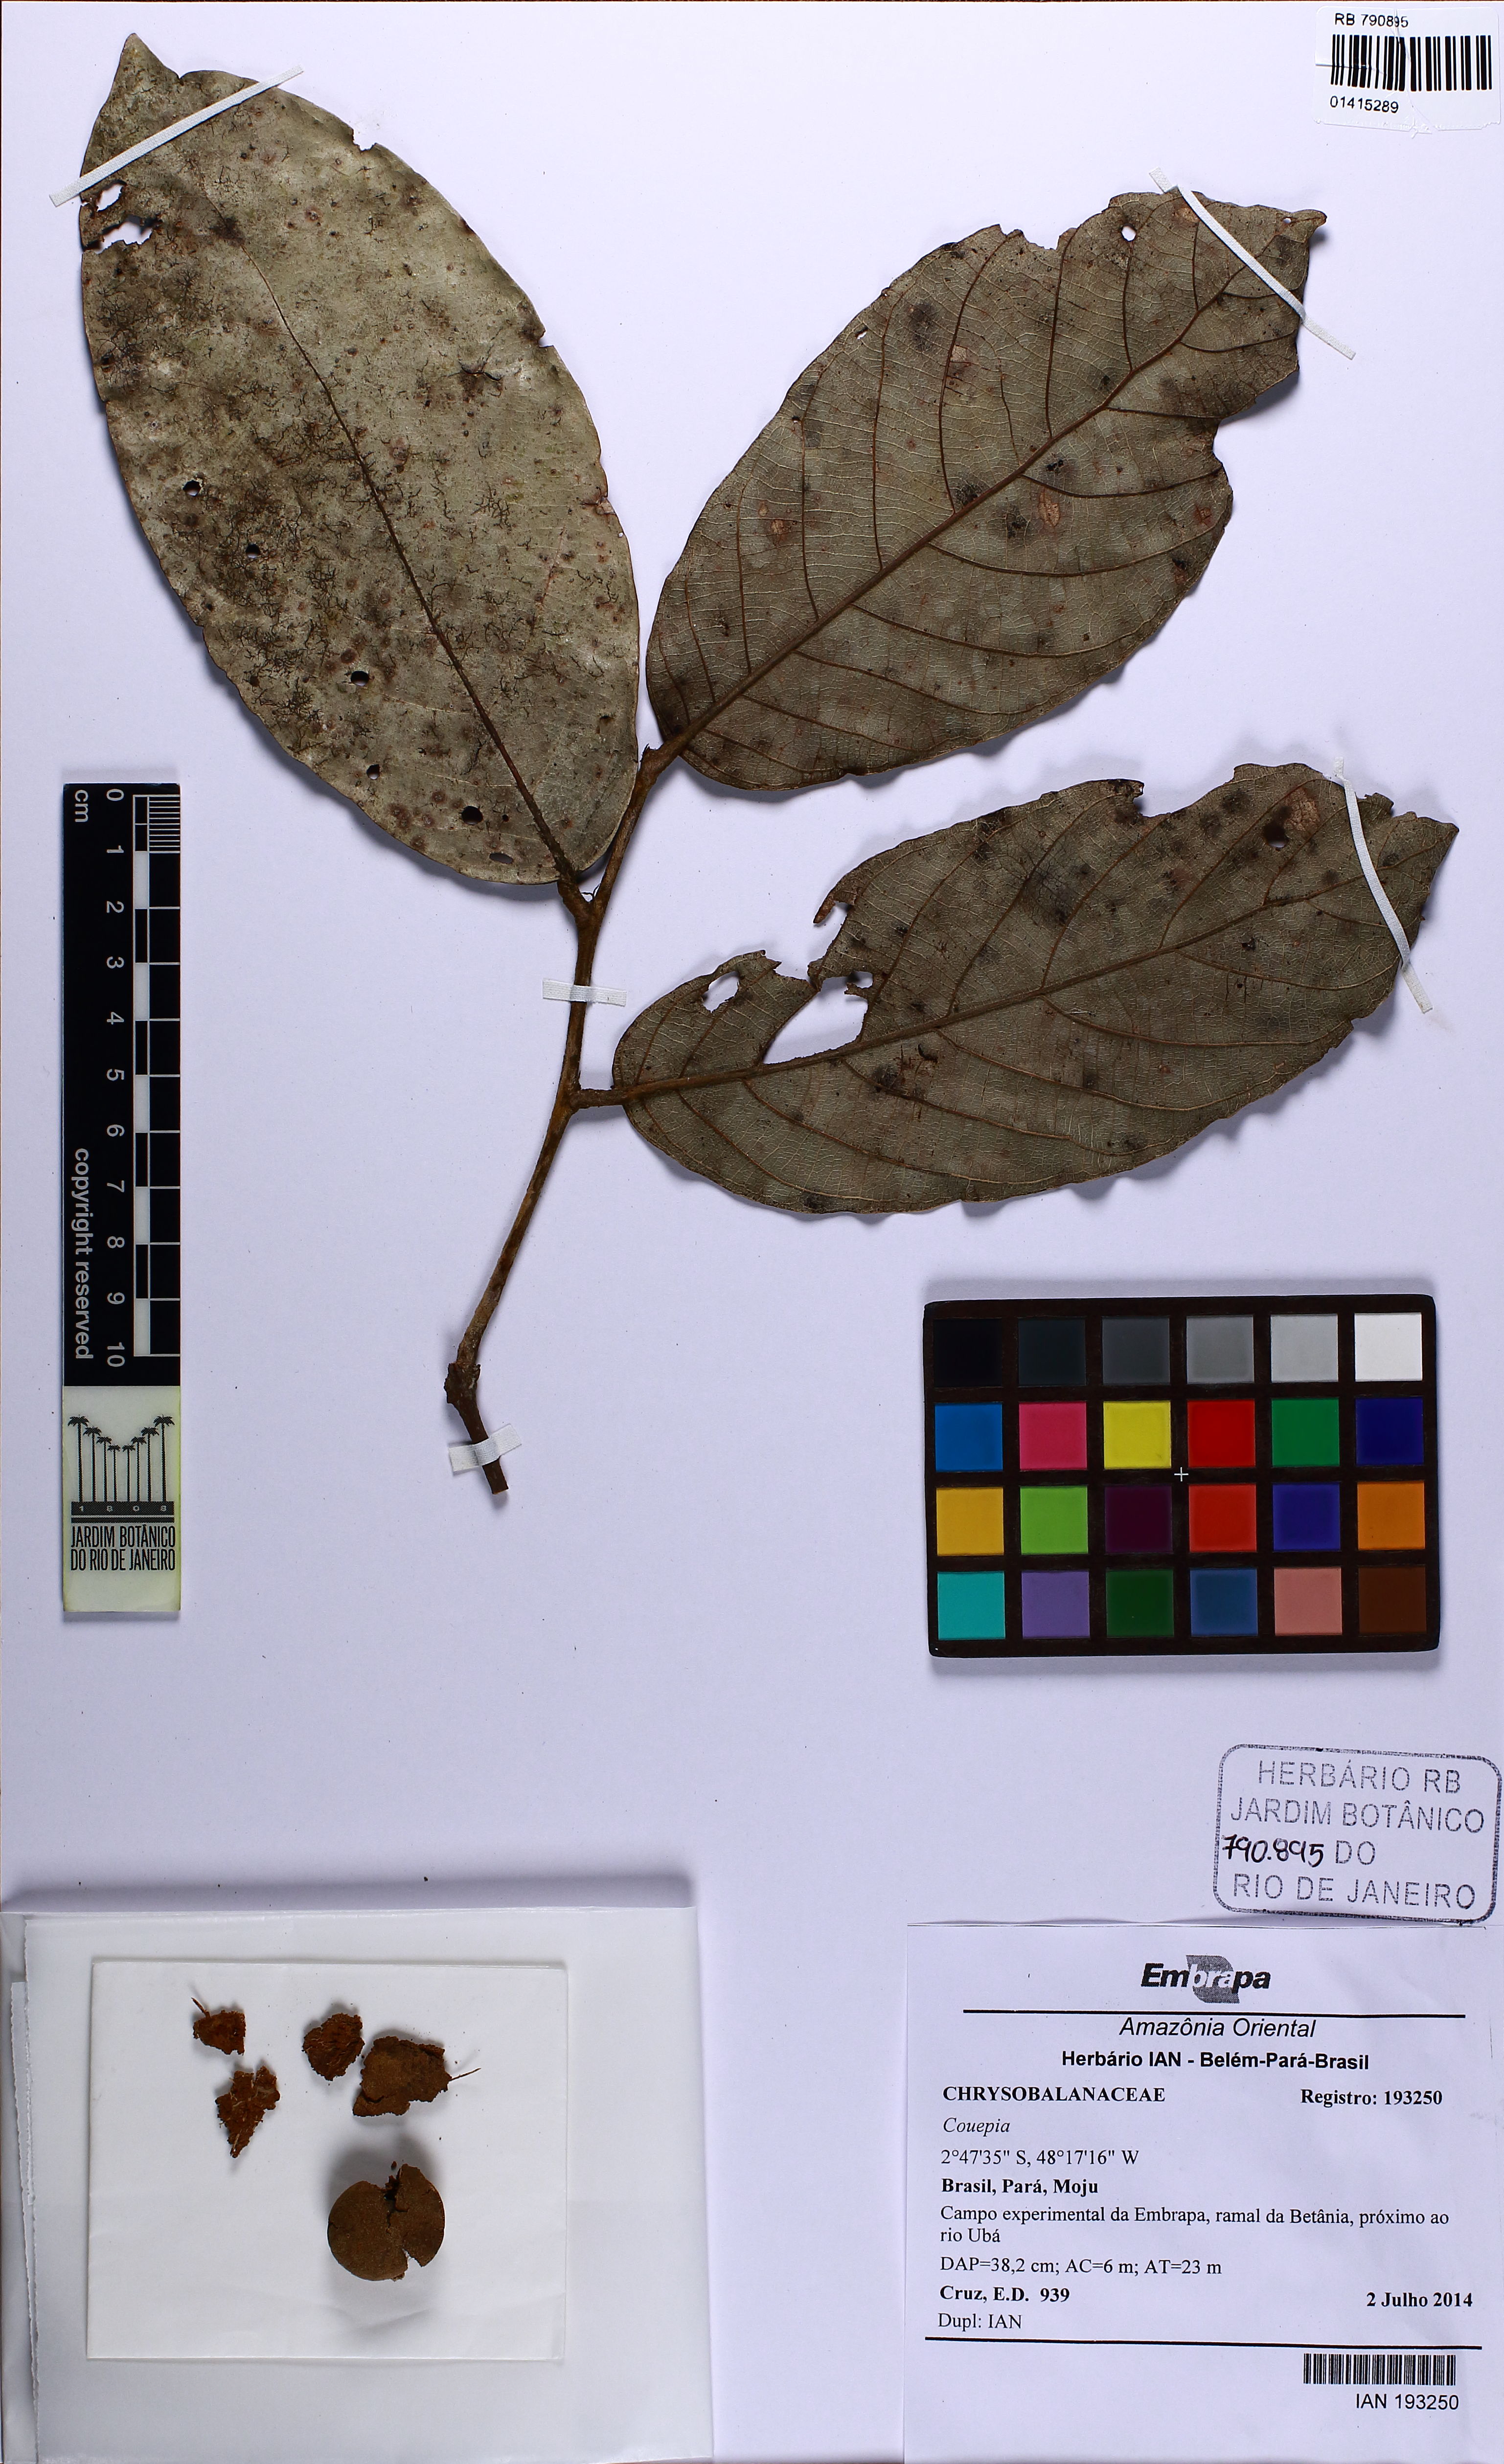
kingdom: Plantae
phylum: Tracheophyta
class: Magnoliopsida
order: Malpighiales
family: Chrysobalanaceae
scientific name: Chrysobalanaceae
